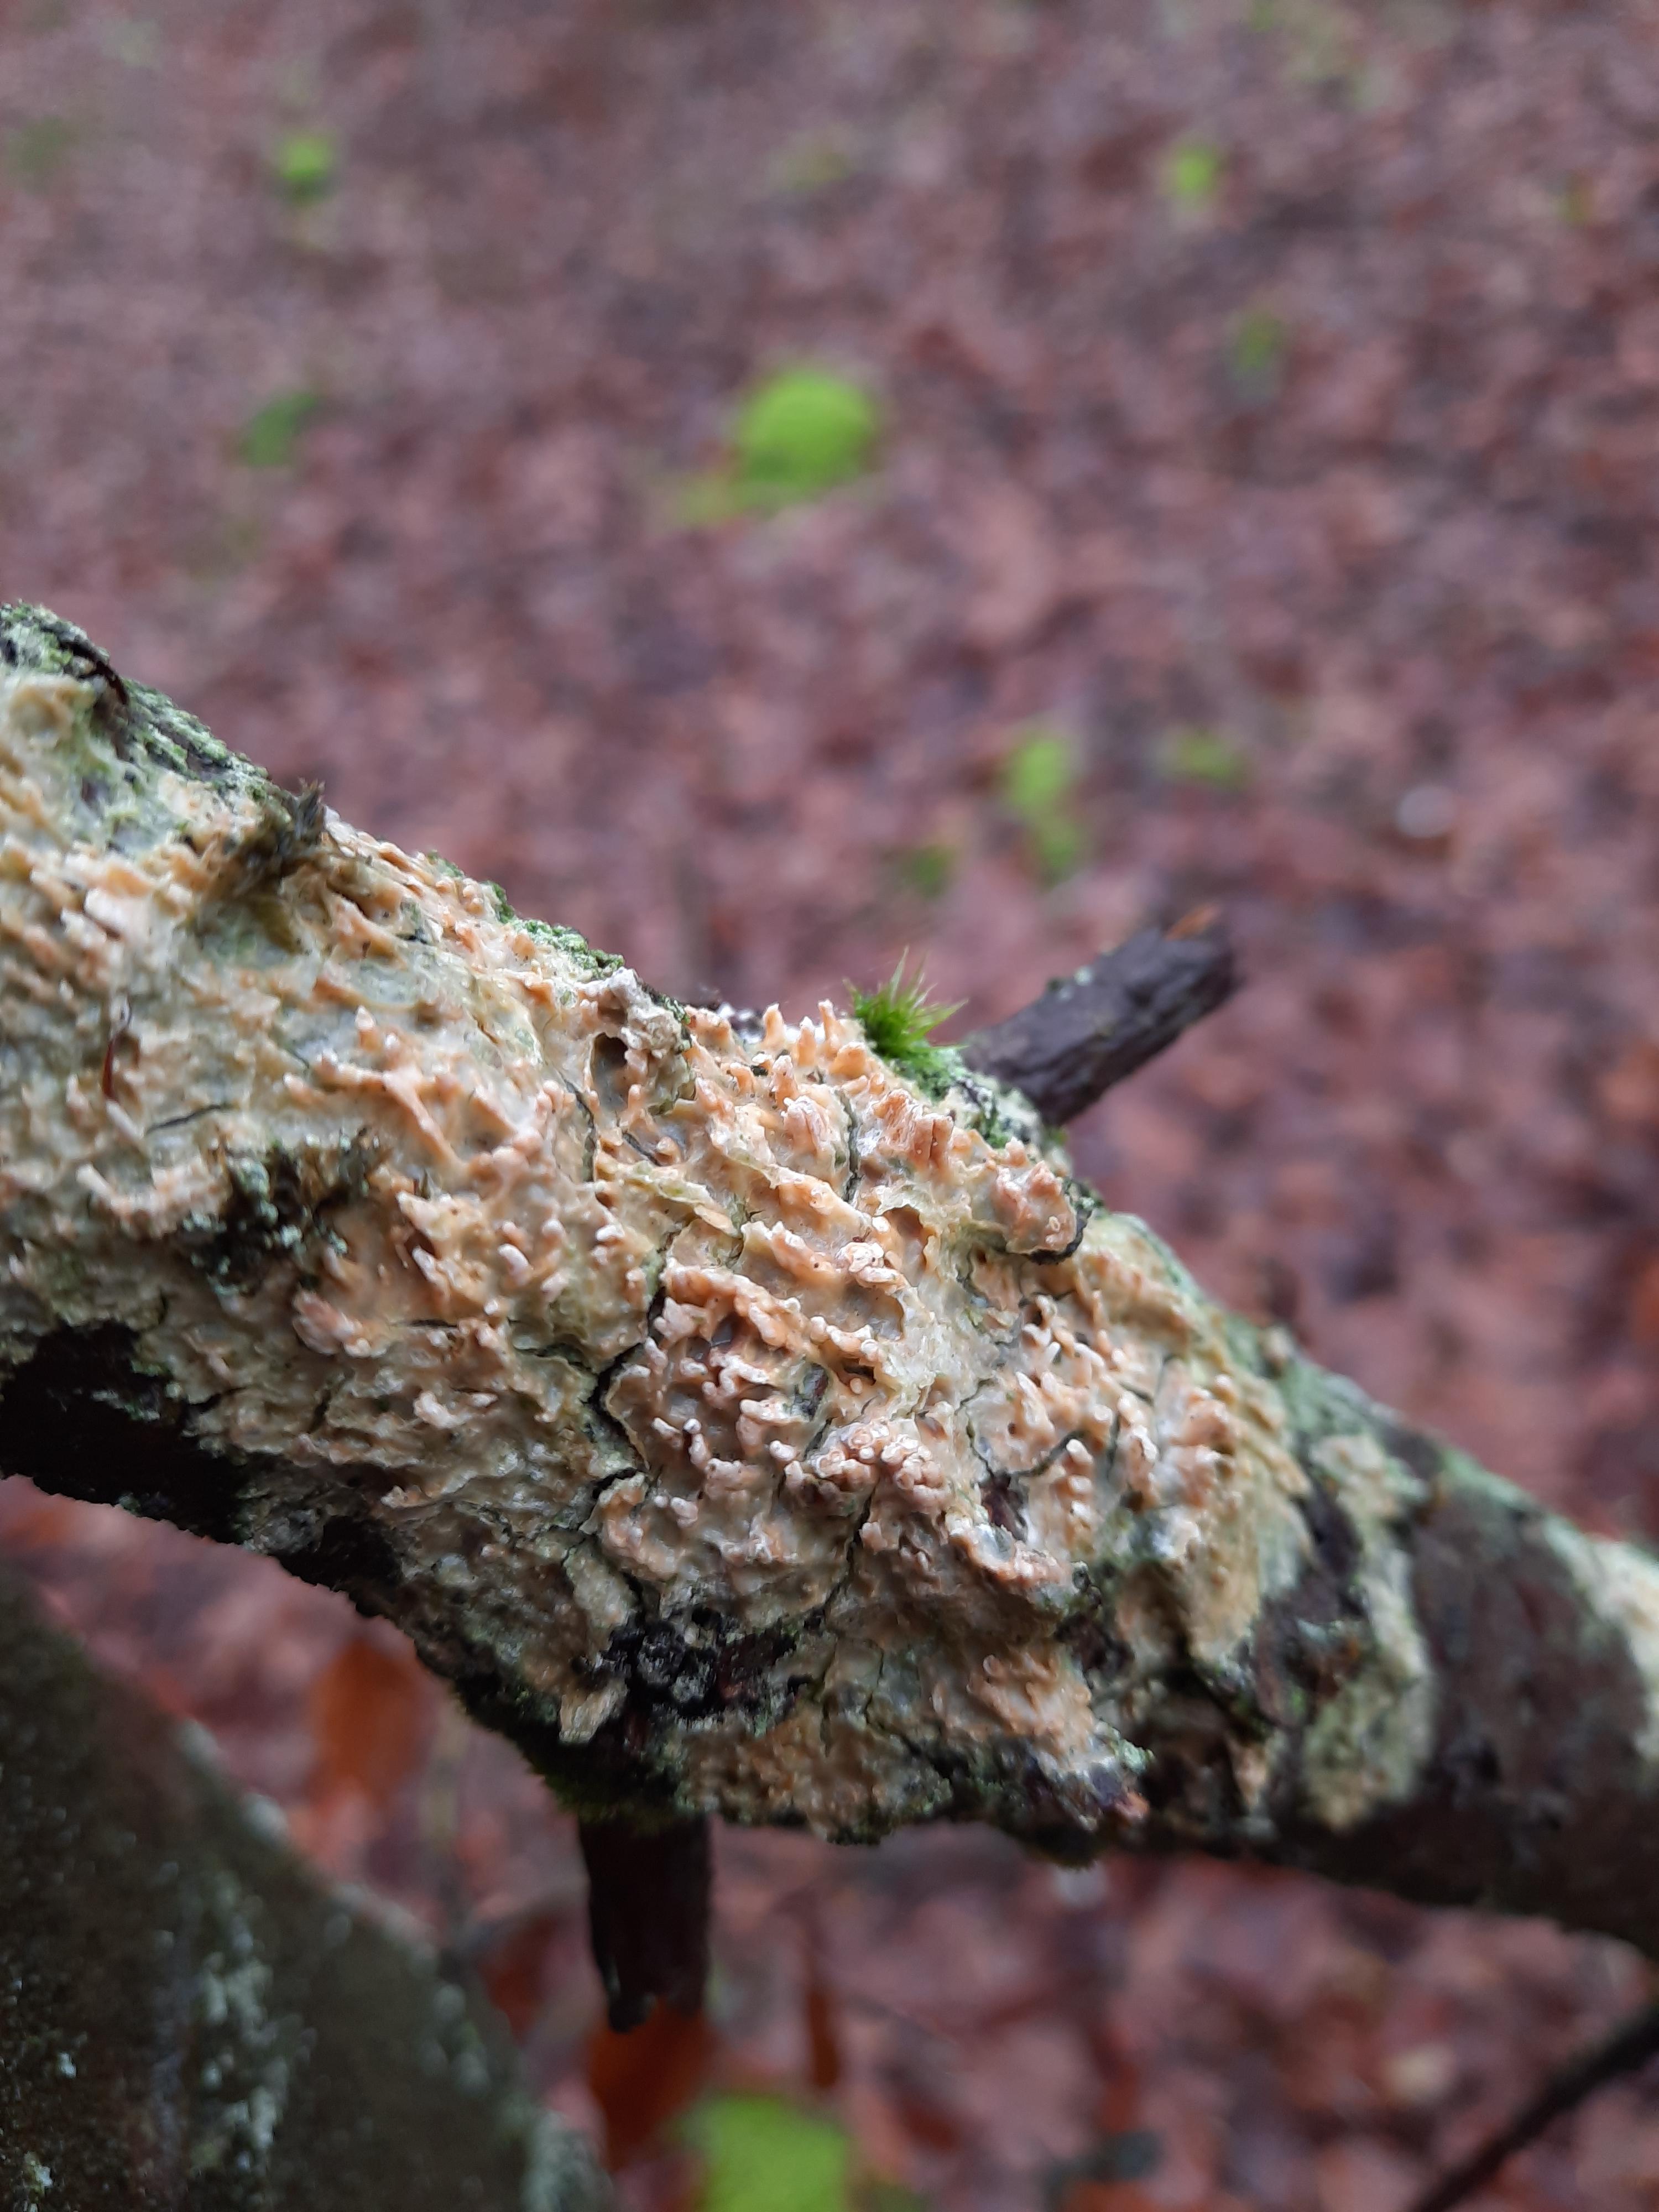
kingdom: Fungi
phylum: Basidiomycota
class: Agaricomycetes
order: Hymenochaetales
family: Schizoporaceae
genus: Xylodon
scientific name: Xylodon radula
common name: grovtandet kalkskind
